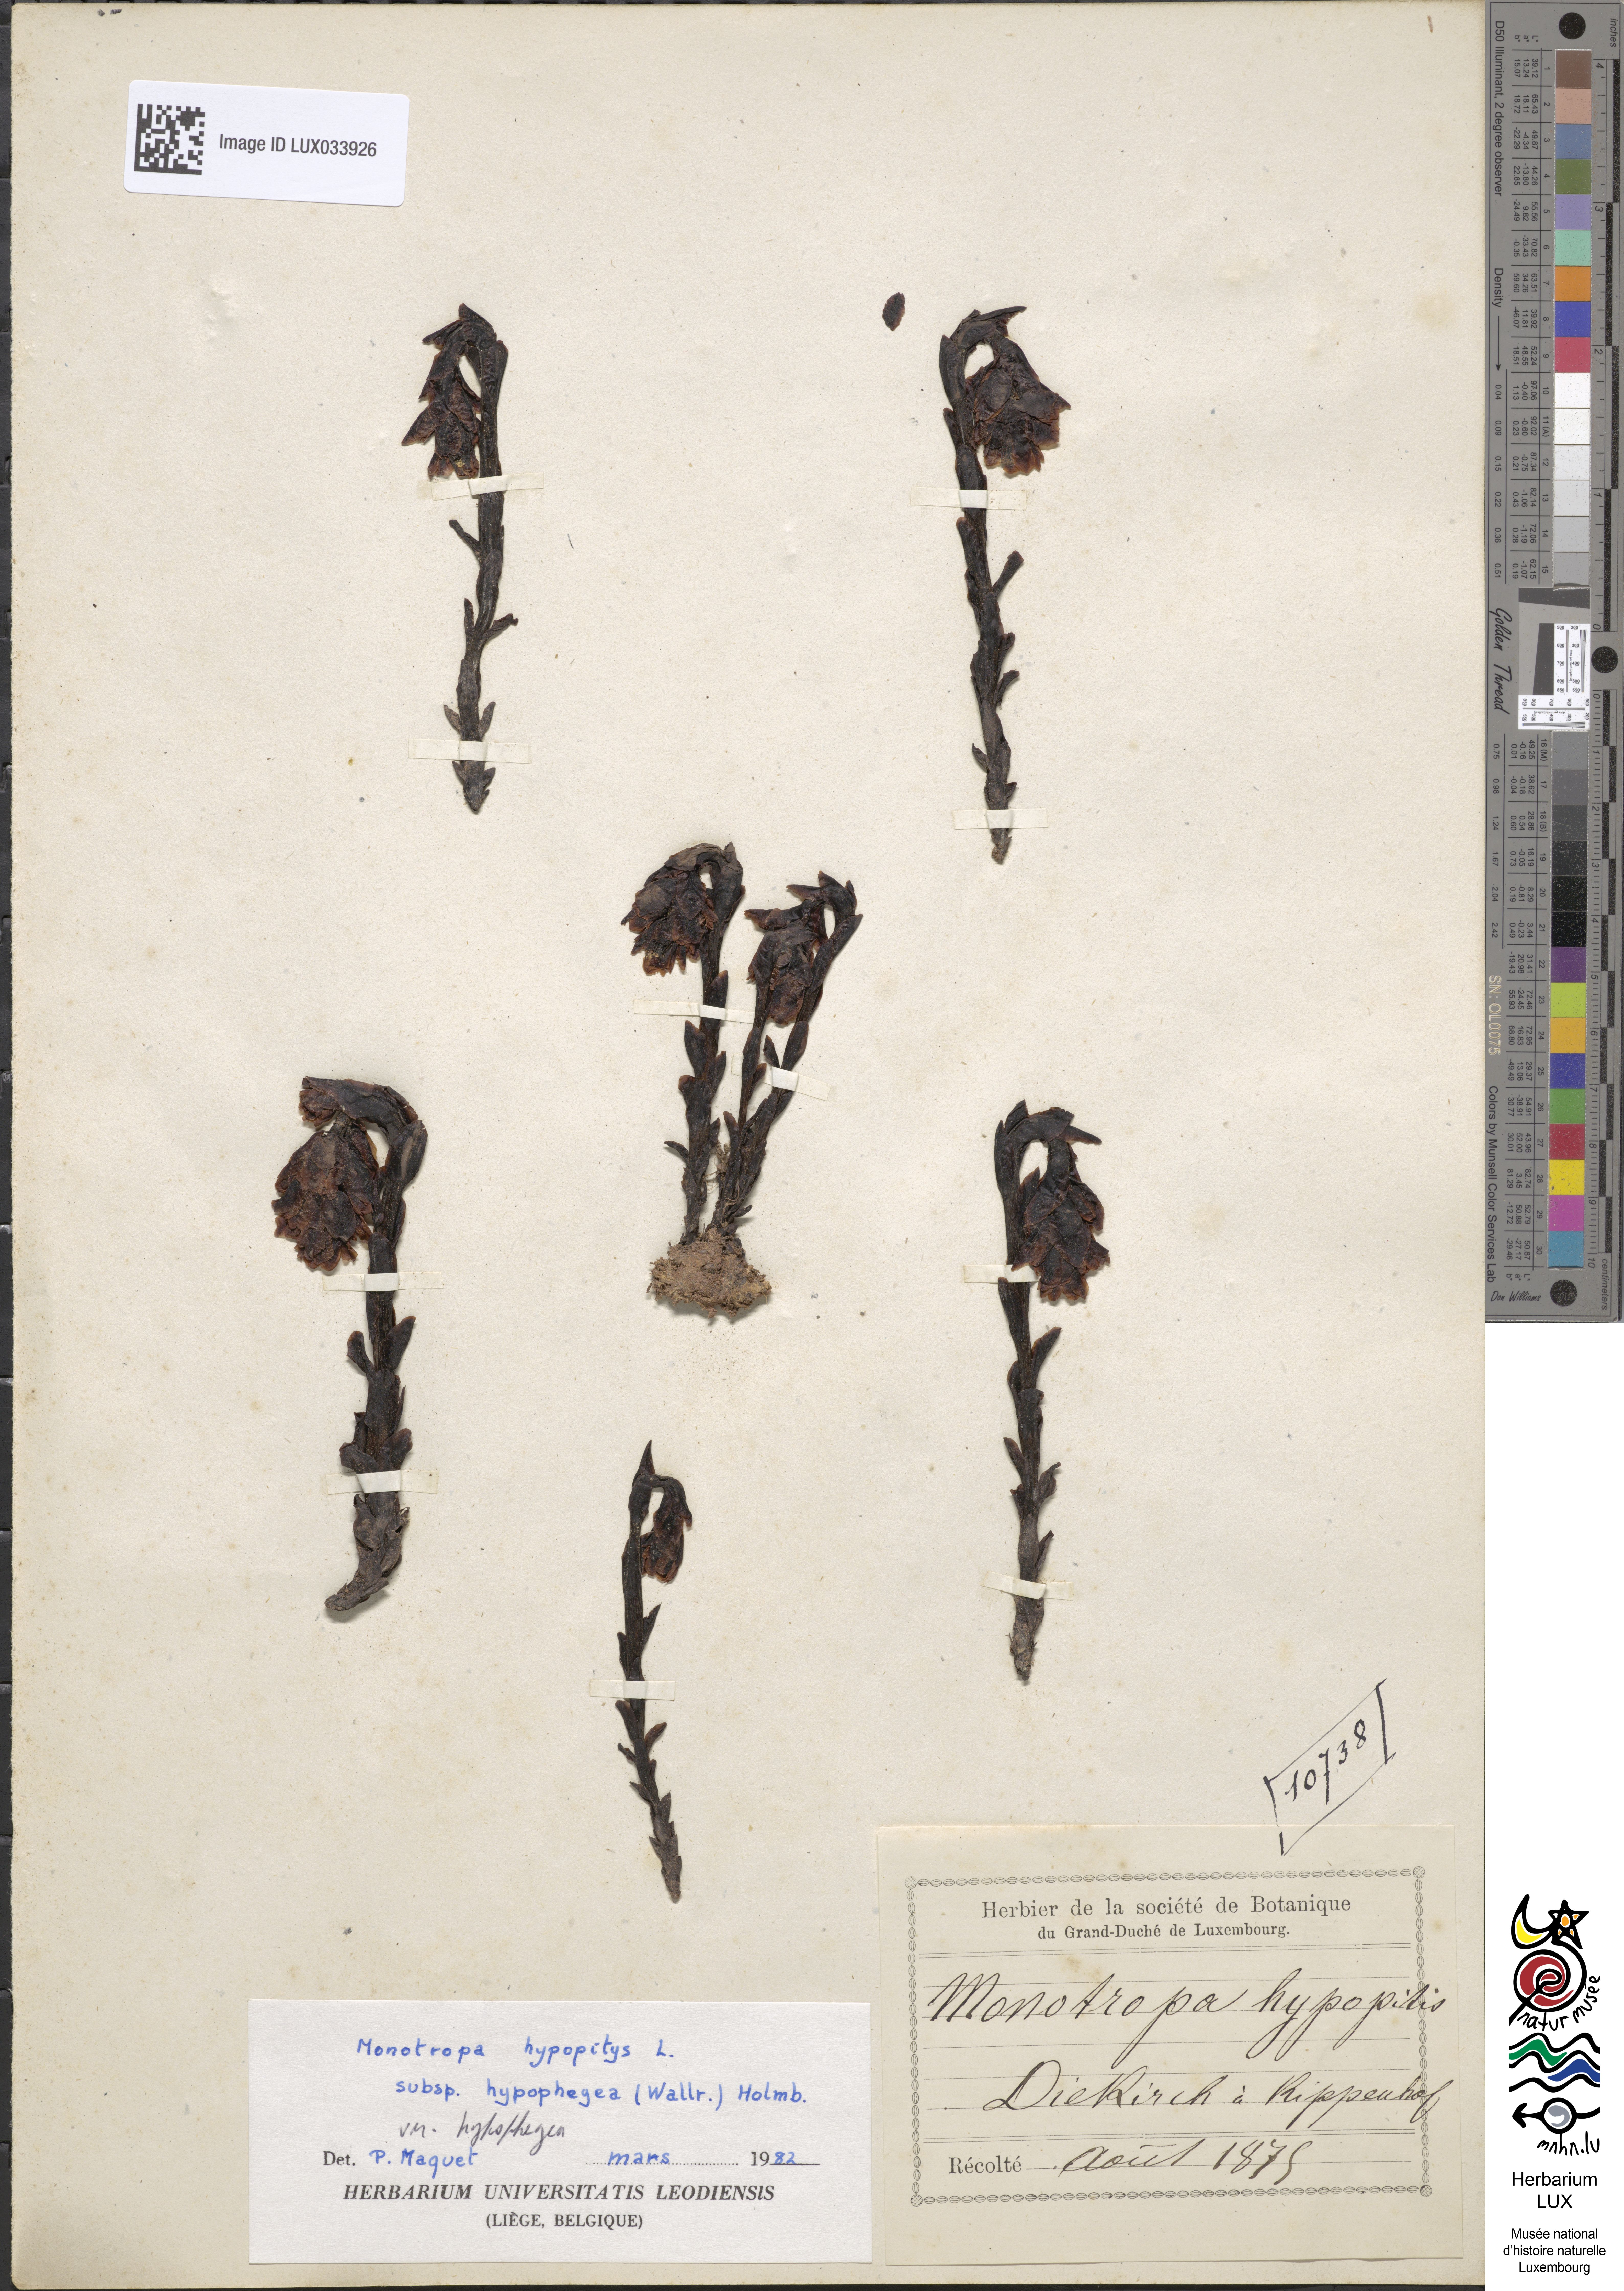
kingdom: Plantae
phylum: Tracheophyta
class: Magnoliopsida
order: Ericales
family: Ericaceae
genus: Hypopitys
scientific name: Hypopitys hypophegea
